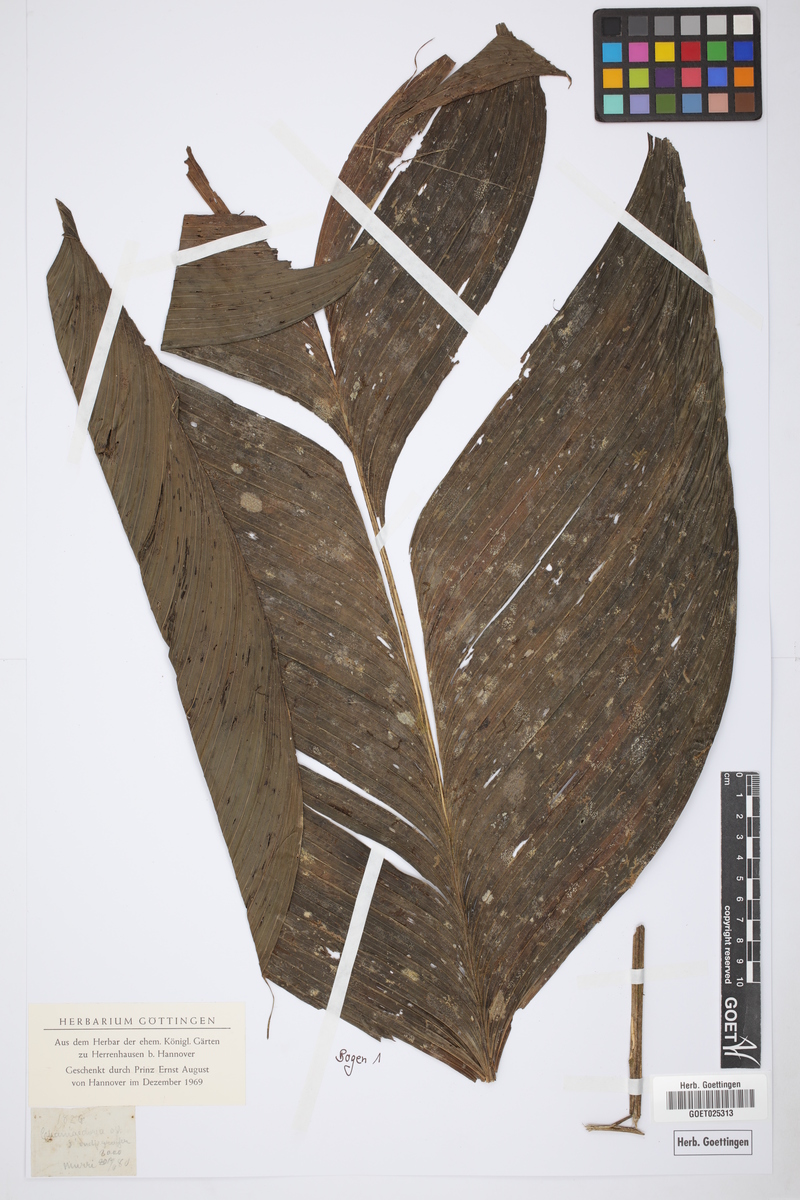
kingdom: Plantae
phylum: Tracheophyta
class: Liliopsida
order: Arecales
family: Arecaceae
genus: Chamaedorea
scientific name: Chamaedorea
